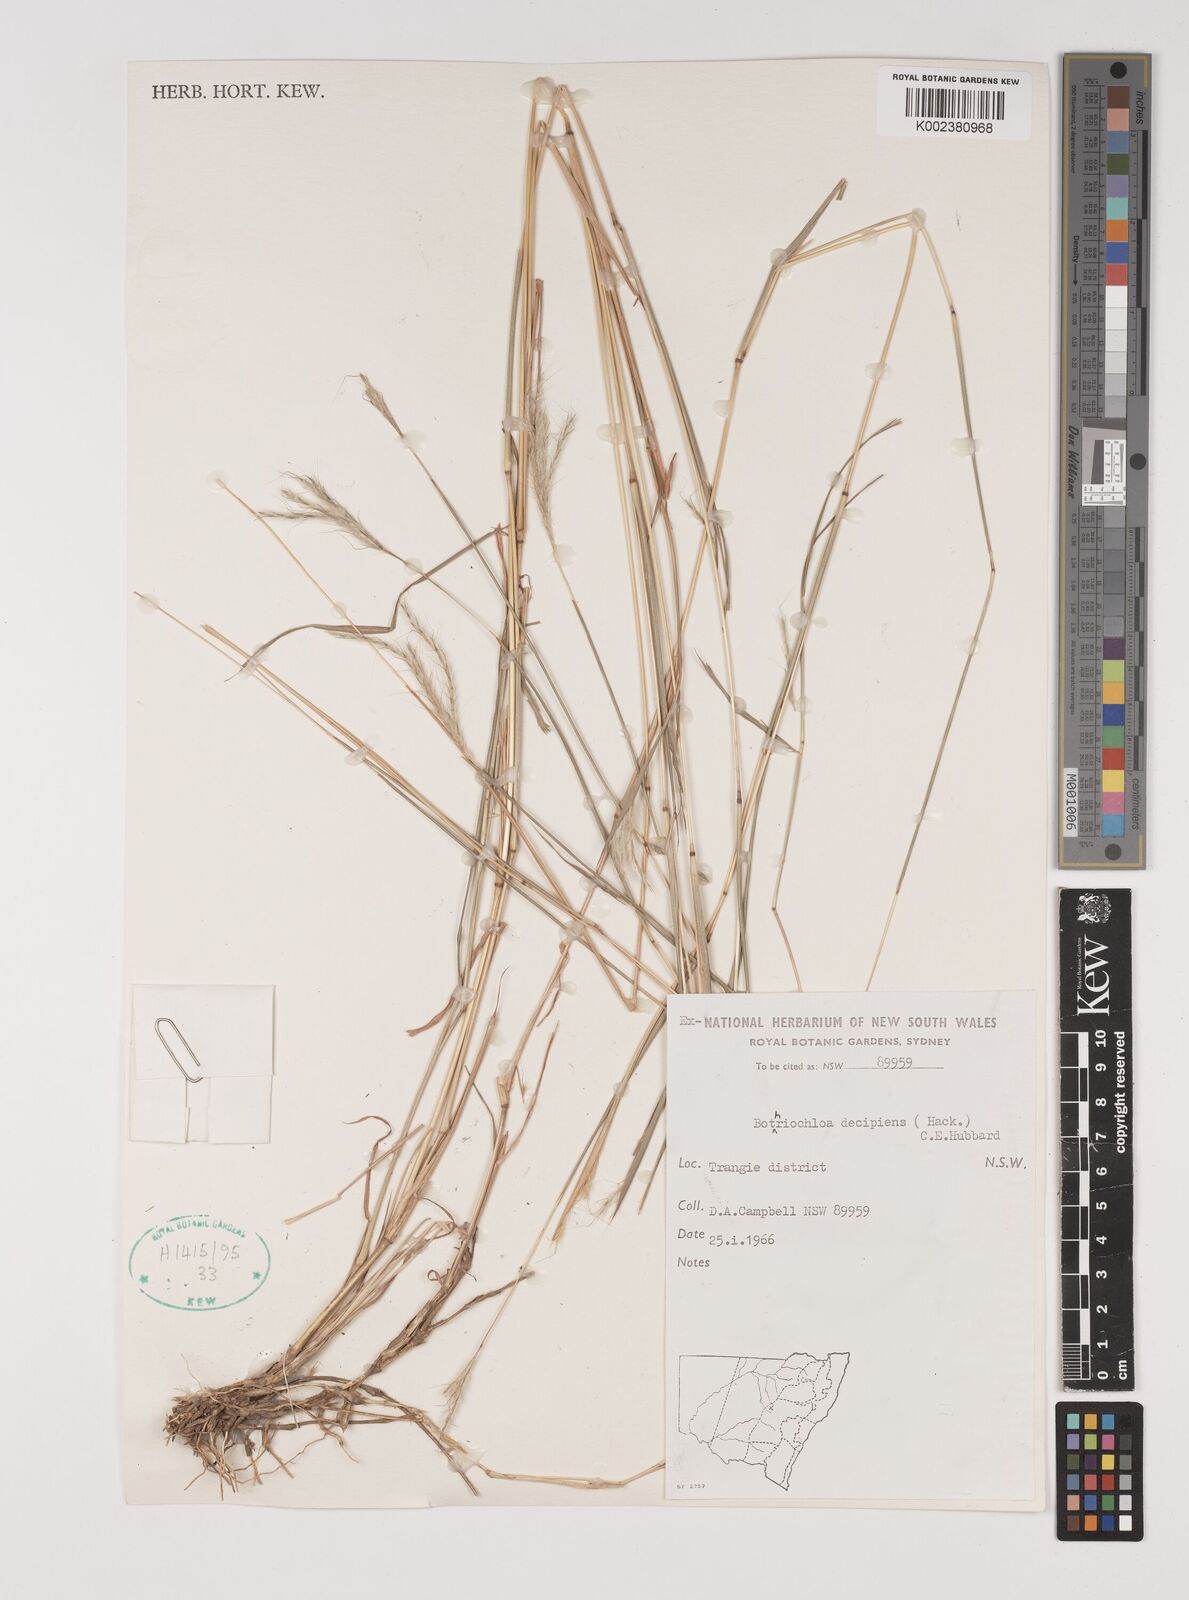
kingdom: Plantae
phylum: Tracheophyta
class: Liliopsida
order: Poales
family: Poaceae
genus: Bothriochloa
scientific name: Bothriochloa decipiens
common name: Pitted-bluegrass
